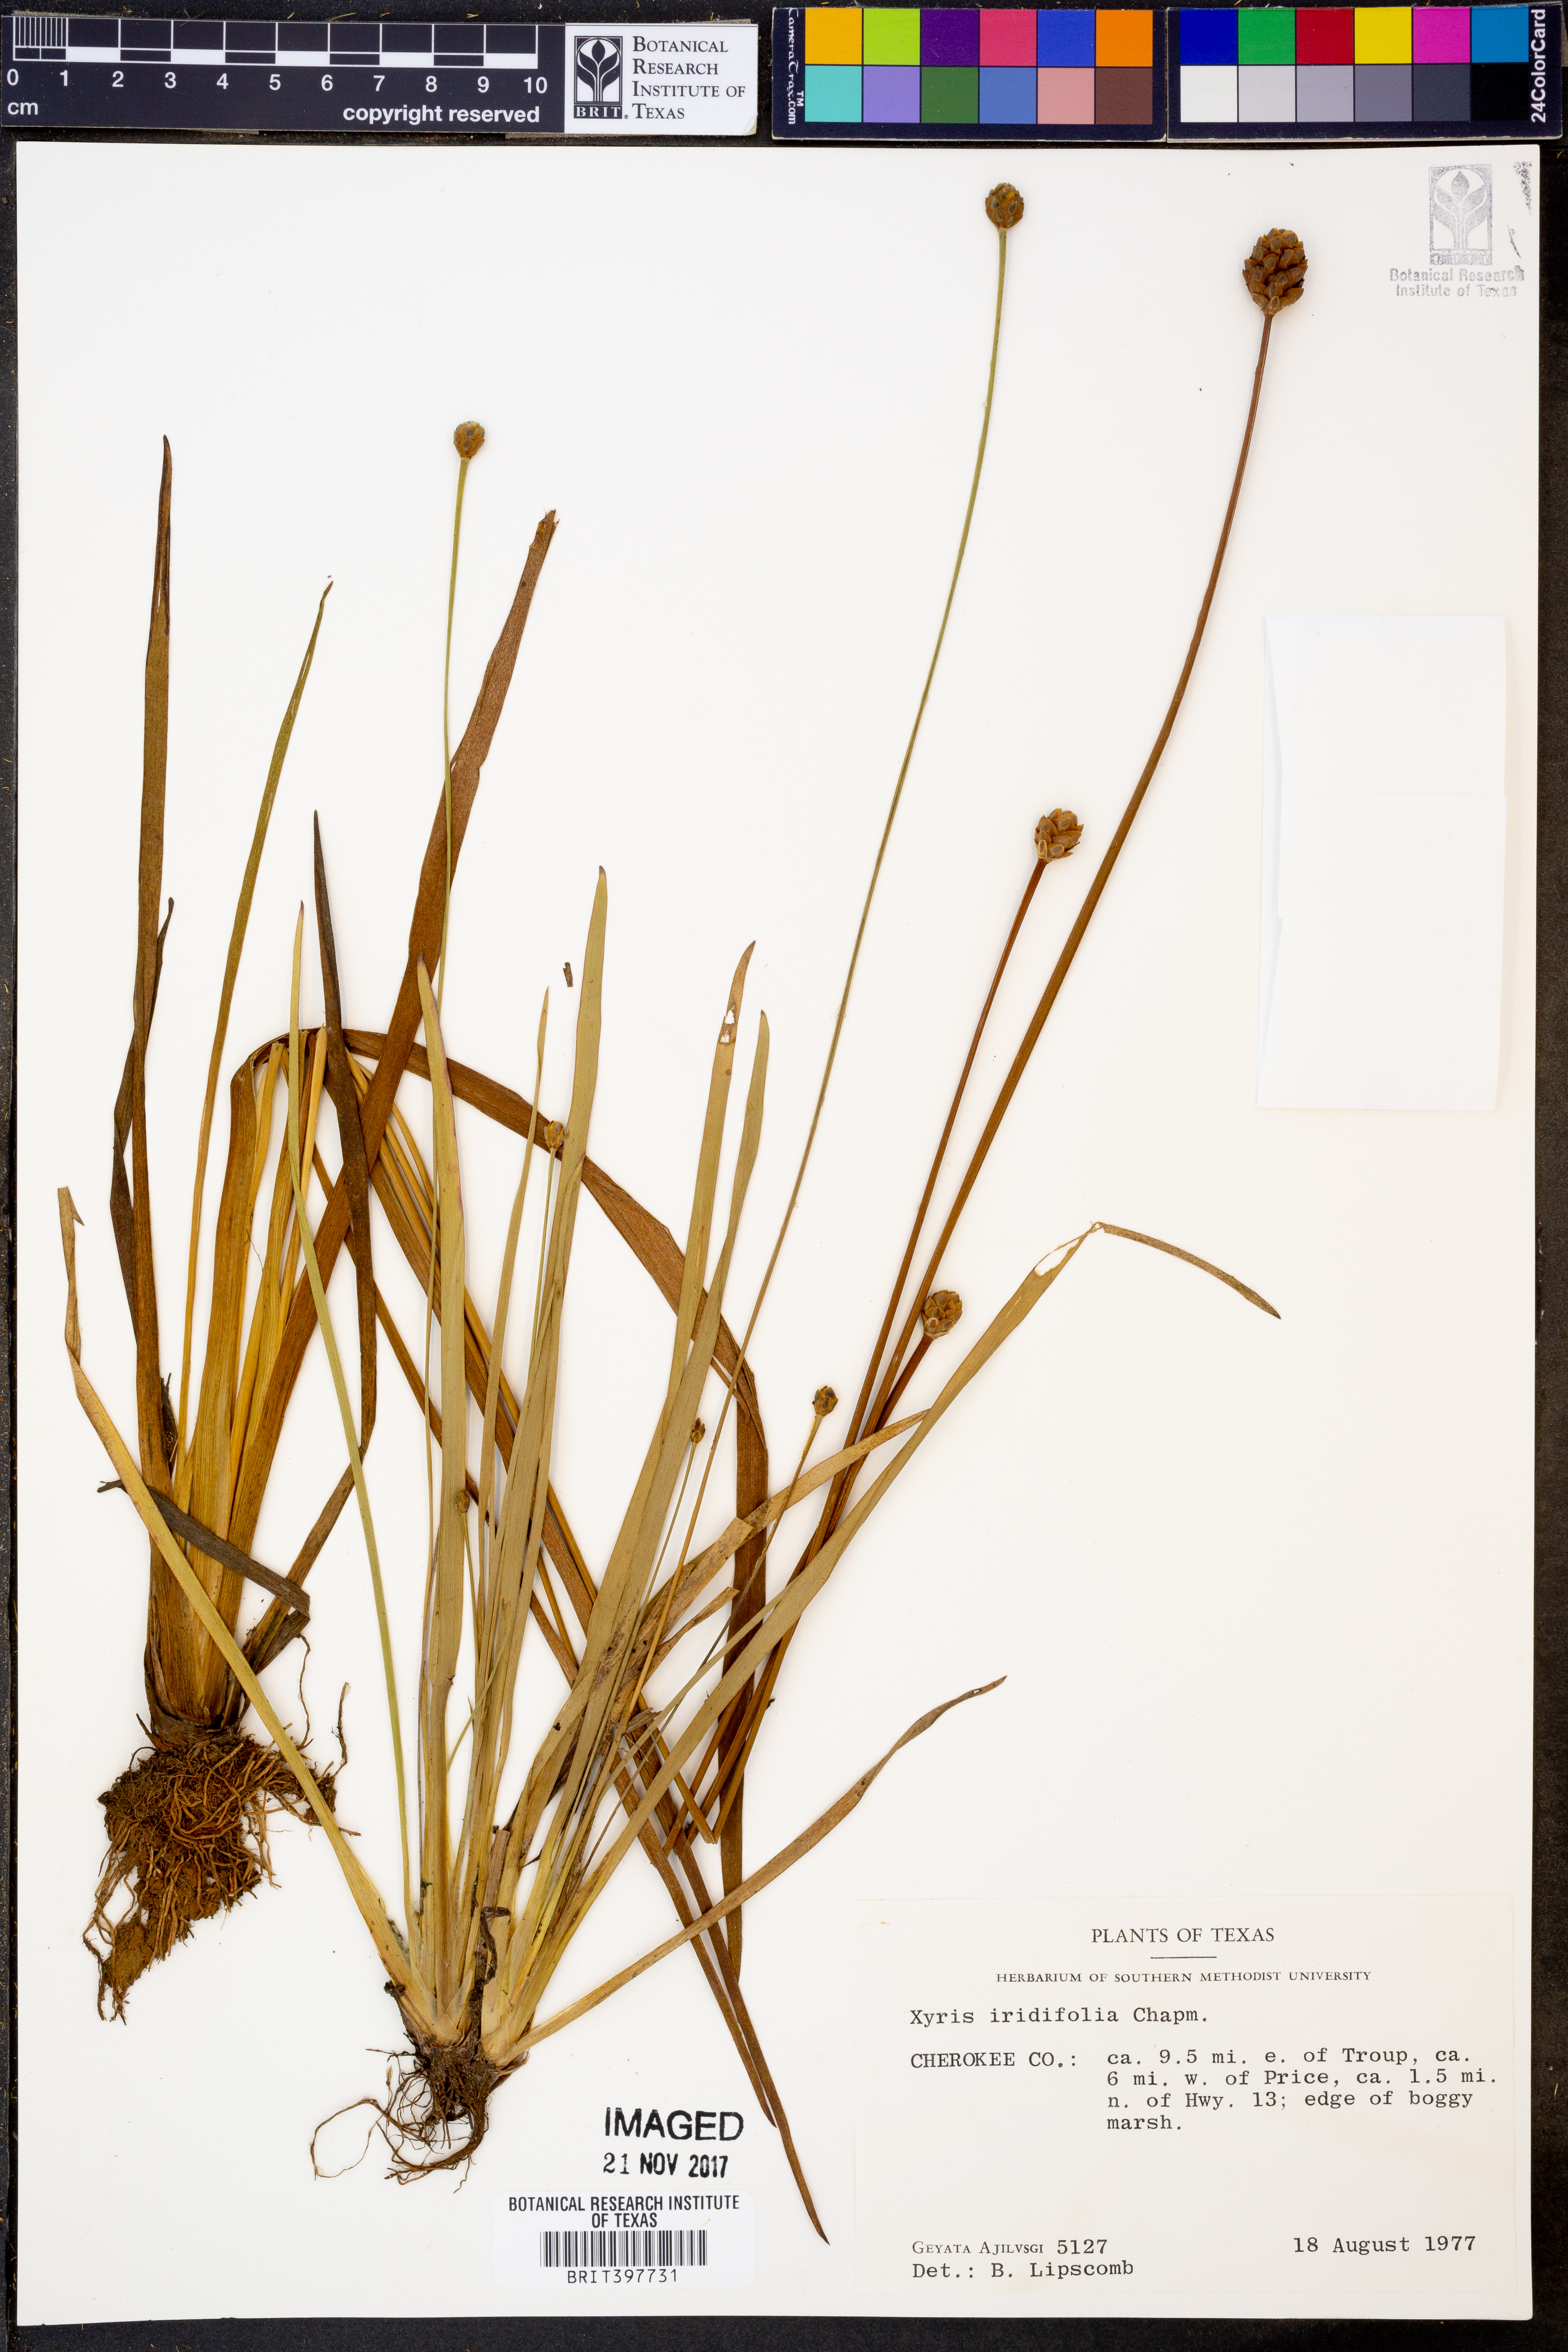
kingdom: Plantae
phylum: Tracheophyta
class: Liliopsida
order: Poales
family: Xyridaceae
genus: Xyris
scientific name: Xyris laxifolia
